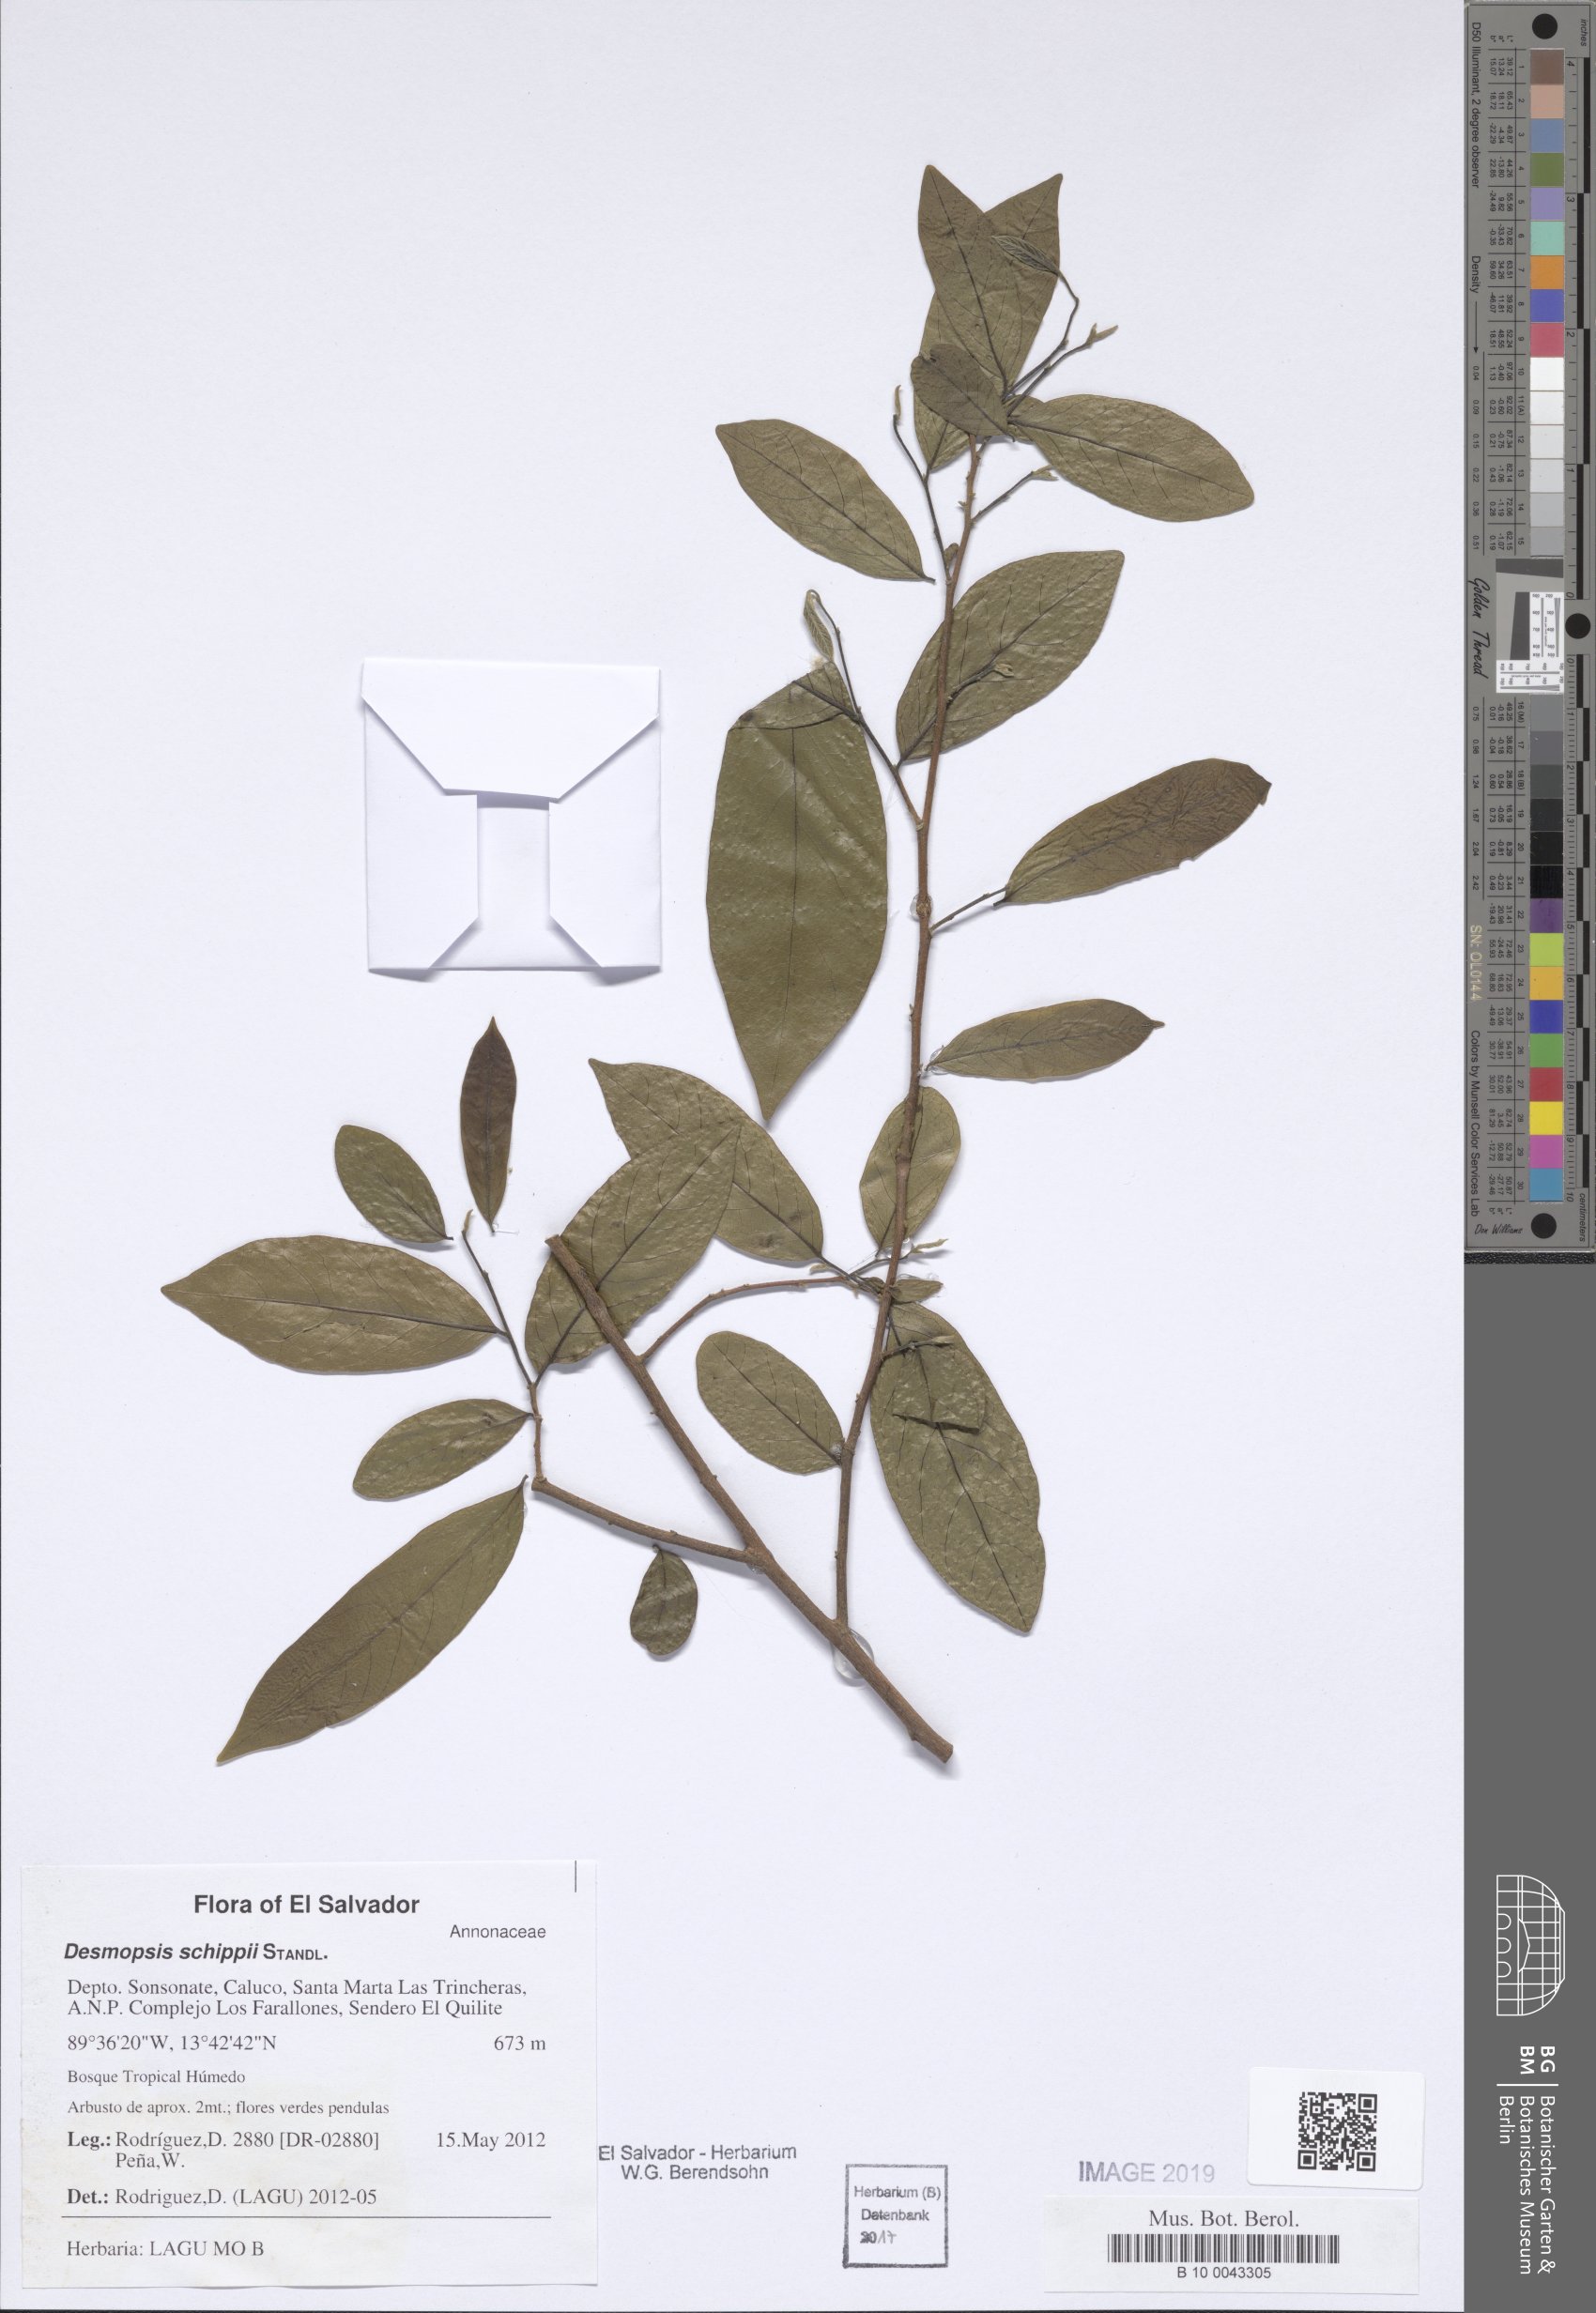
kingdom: Plantae
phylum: Tracheophyta
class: Magnoliopsida
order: Magnoliales
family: Annonaceae
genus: Desmopsis
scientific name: Desmopsis schippii
